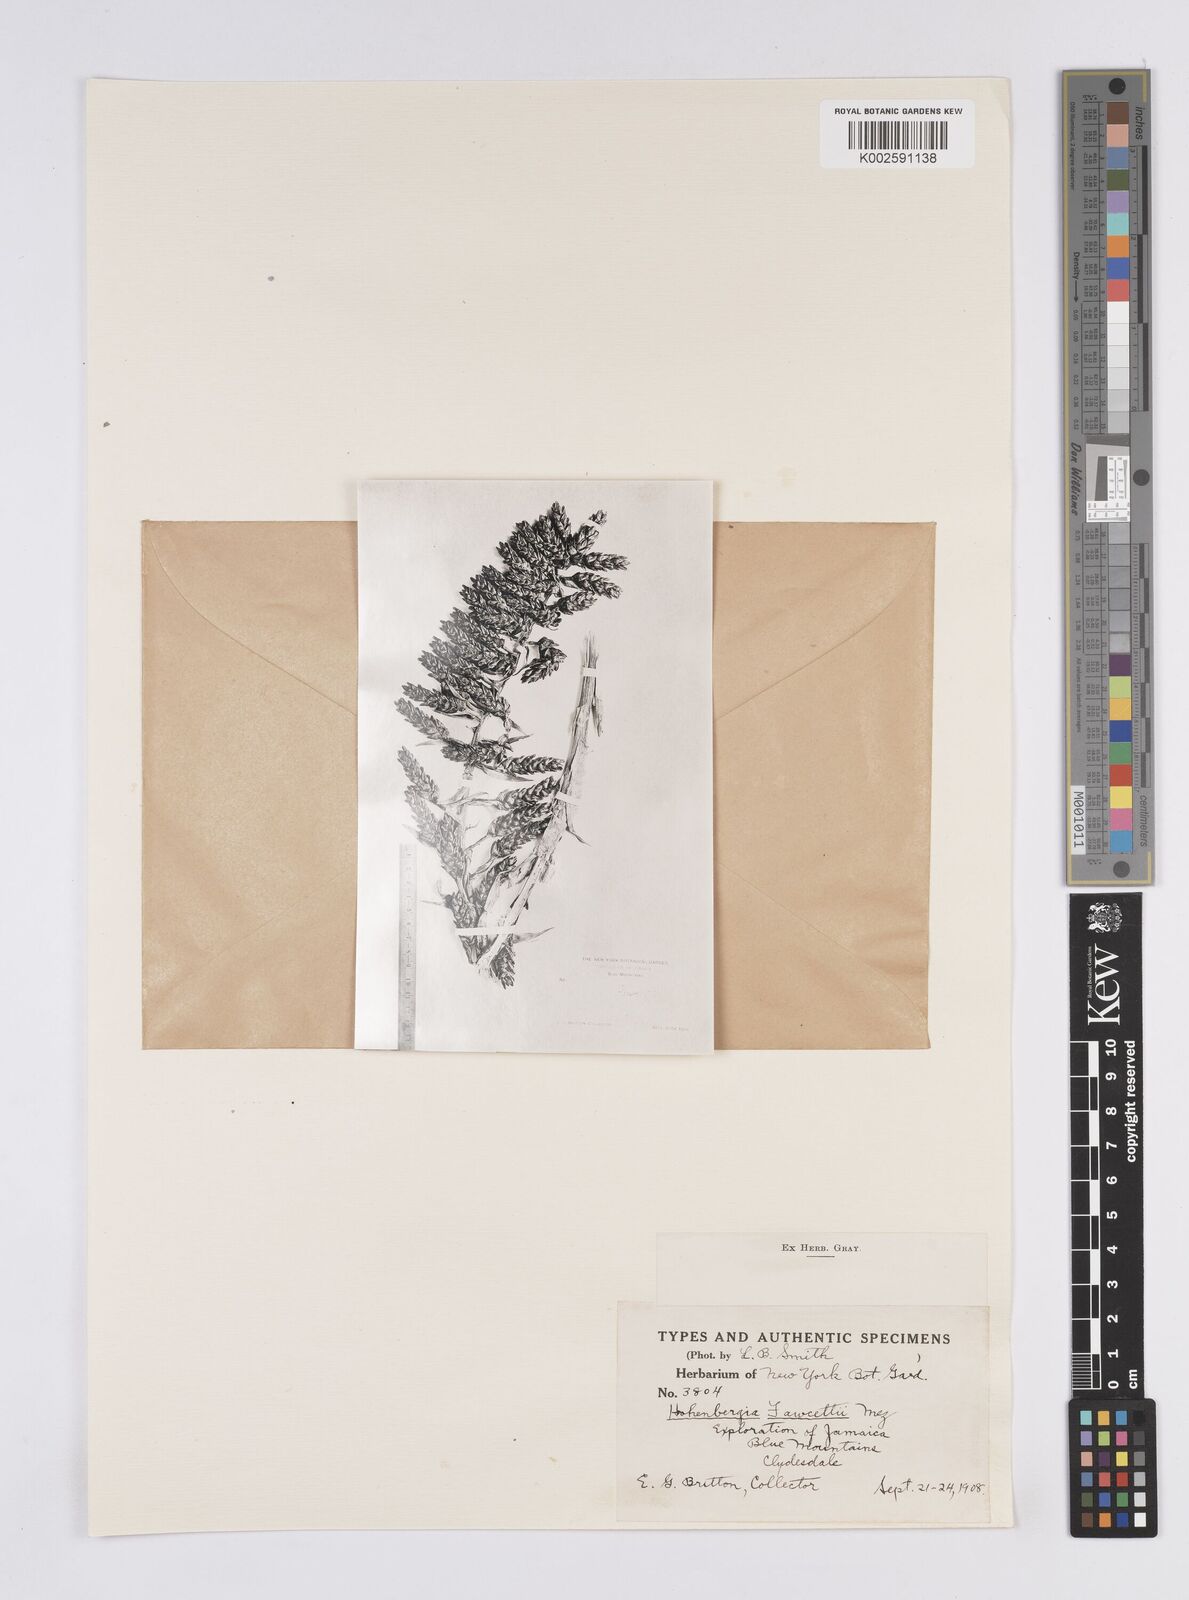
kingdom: Plantae
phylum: Tracheophyta
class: Liliopsida
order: Poales
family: Bromeliaceae
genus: Nidularium
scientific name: Nidularium
